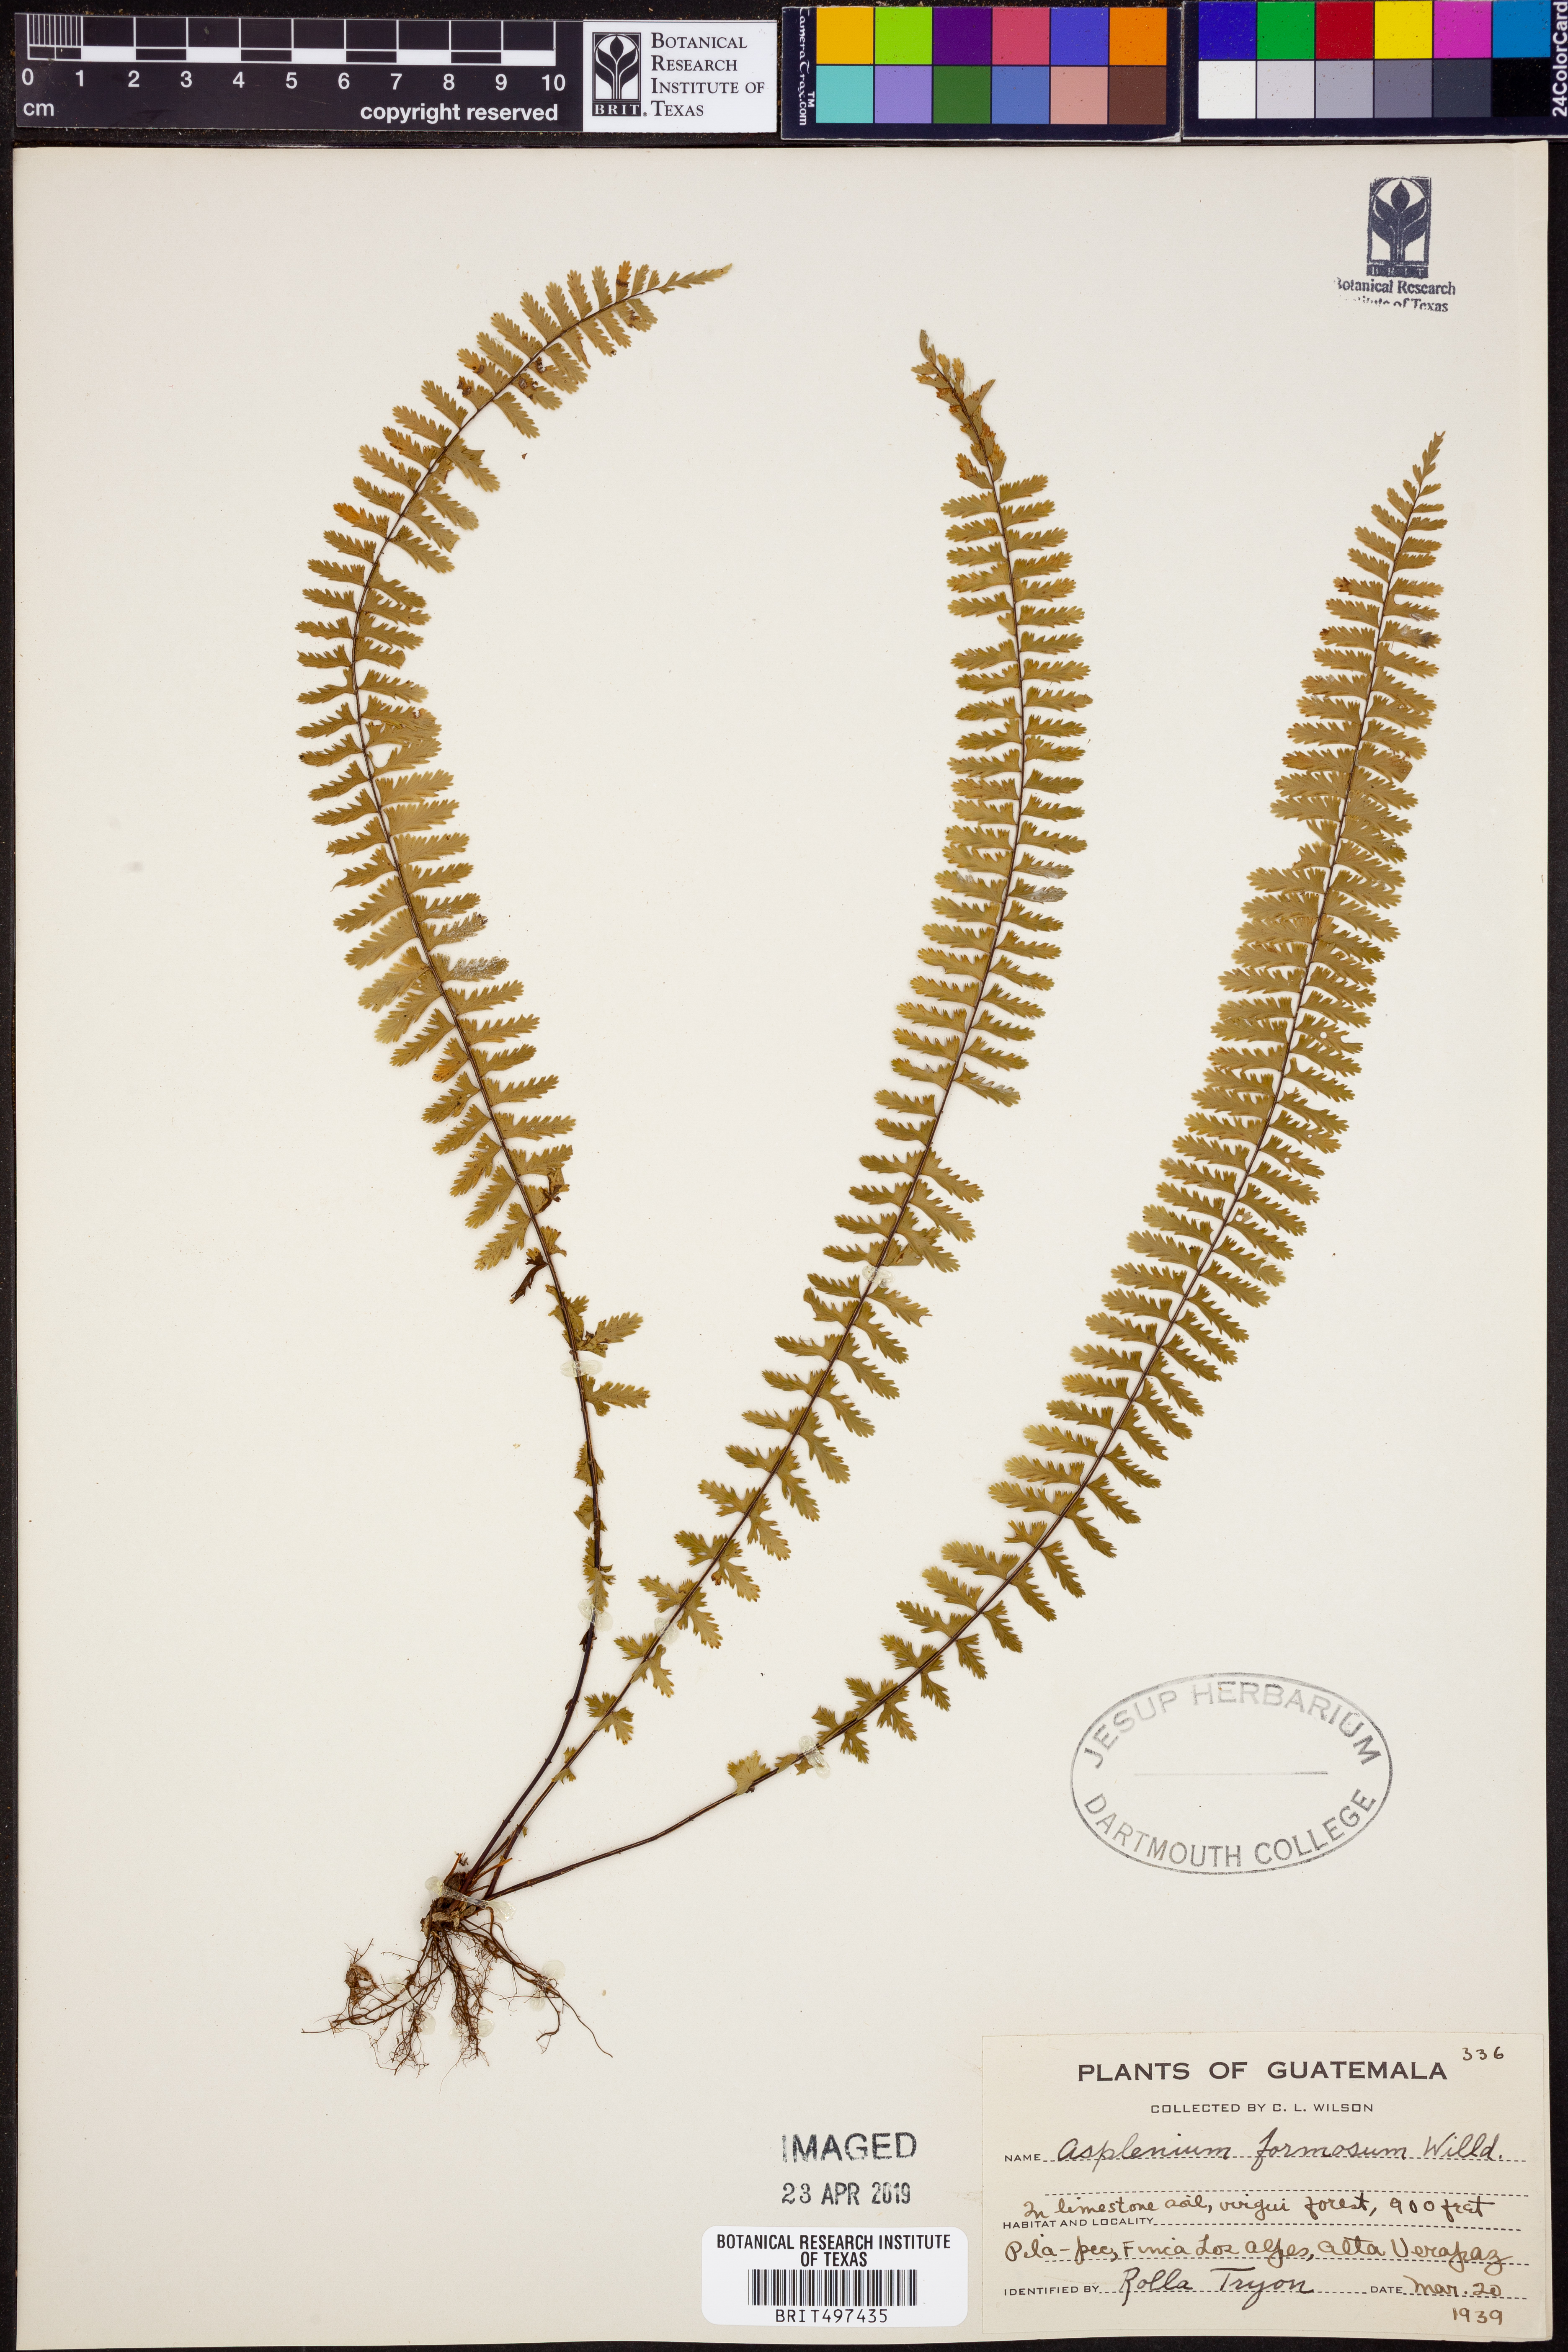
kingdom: Plantae
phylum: Tracheophyta
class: Polypodiopsida
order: Polypodiales
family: Aspleniaceae
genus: Asplenium
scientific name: Asplenium formosum
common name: Showy spleenwort
